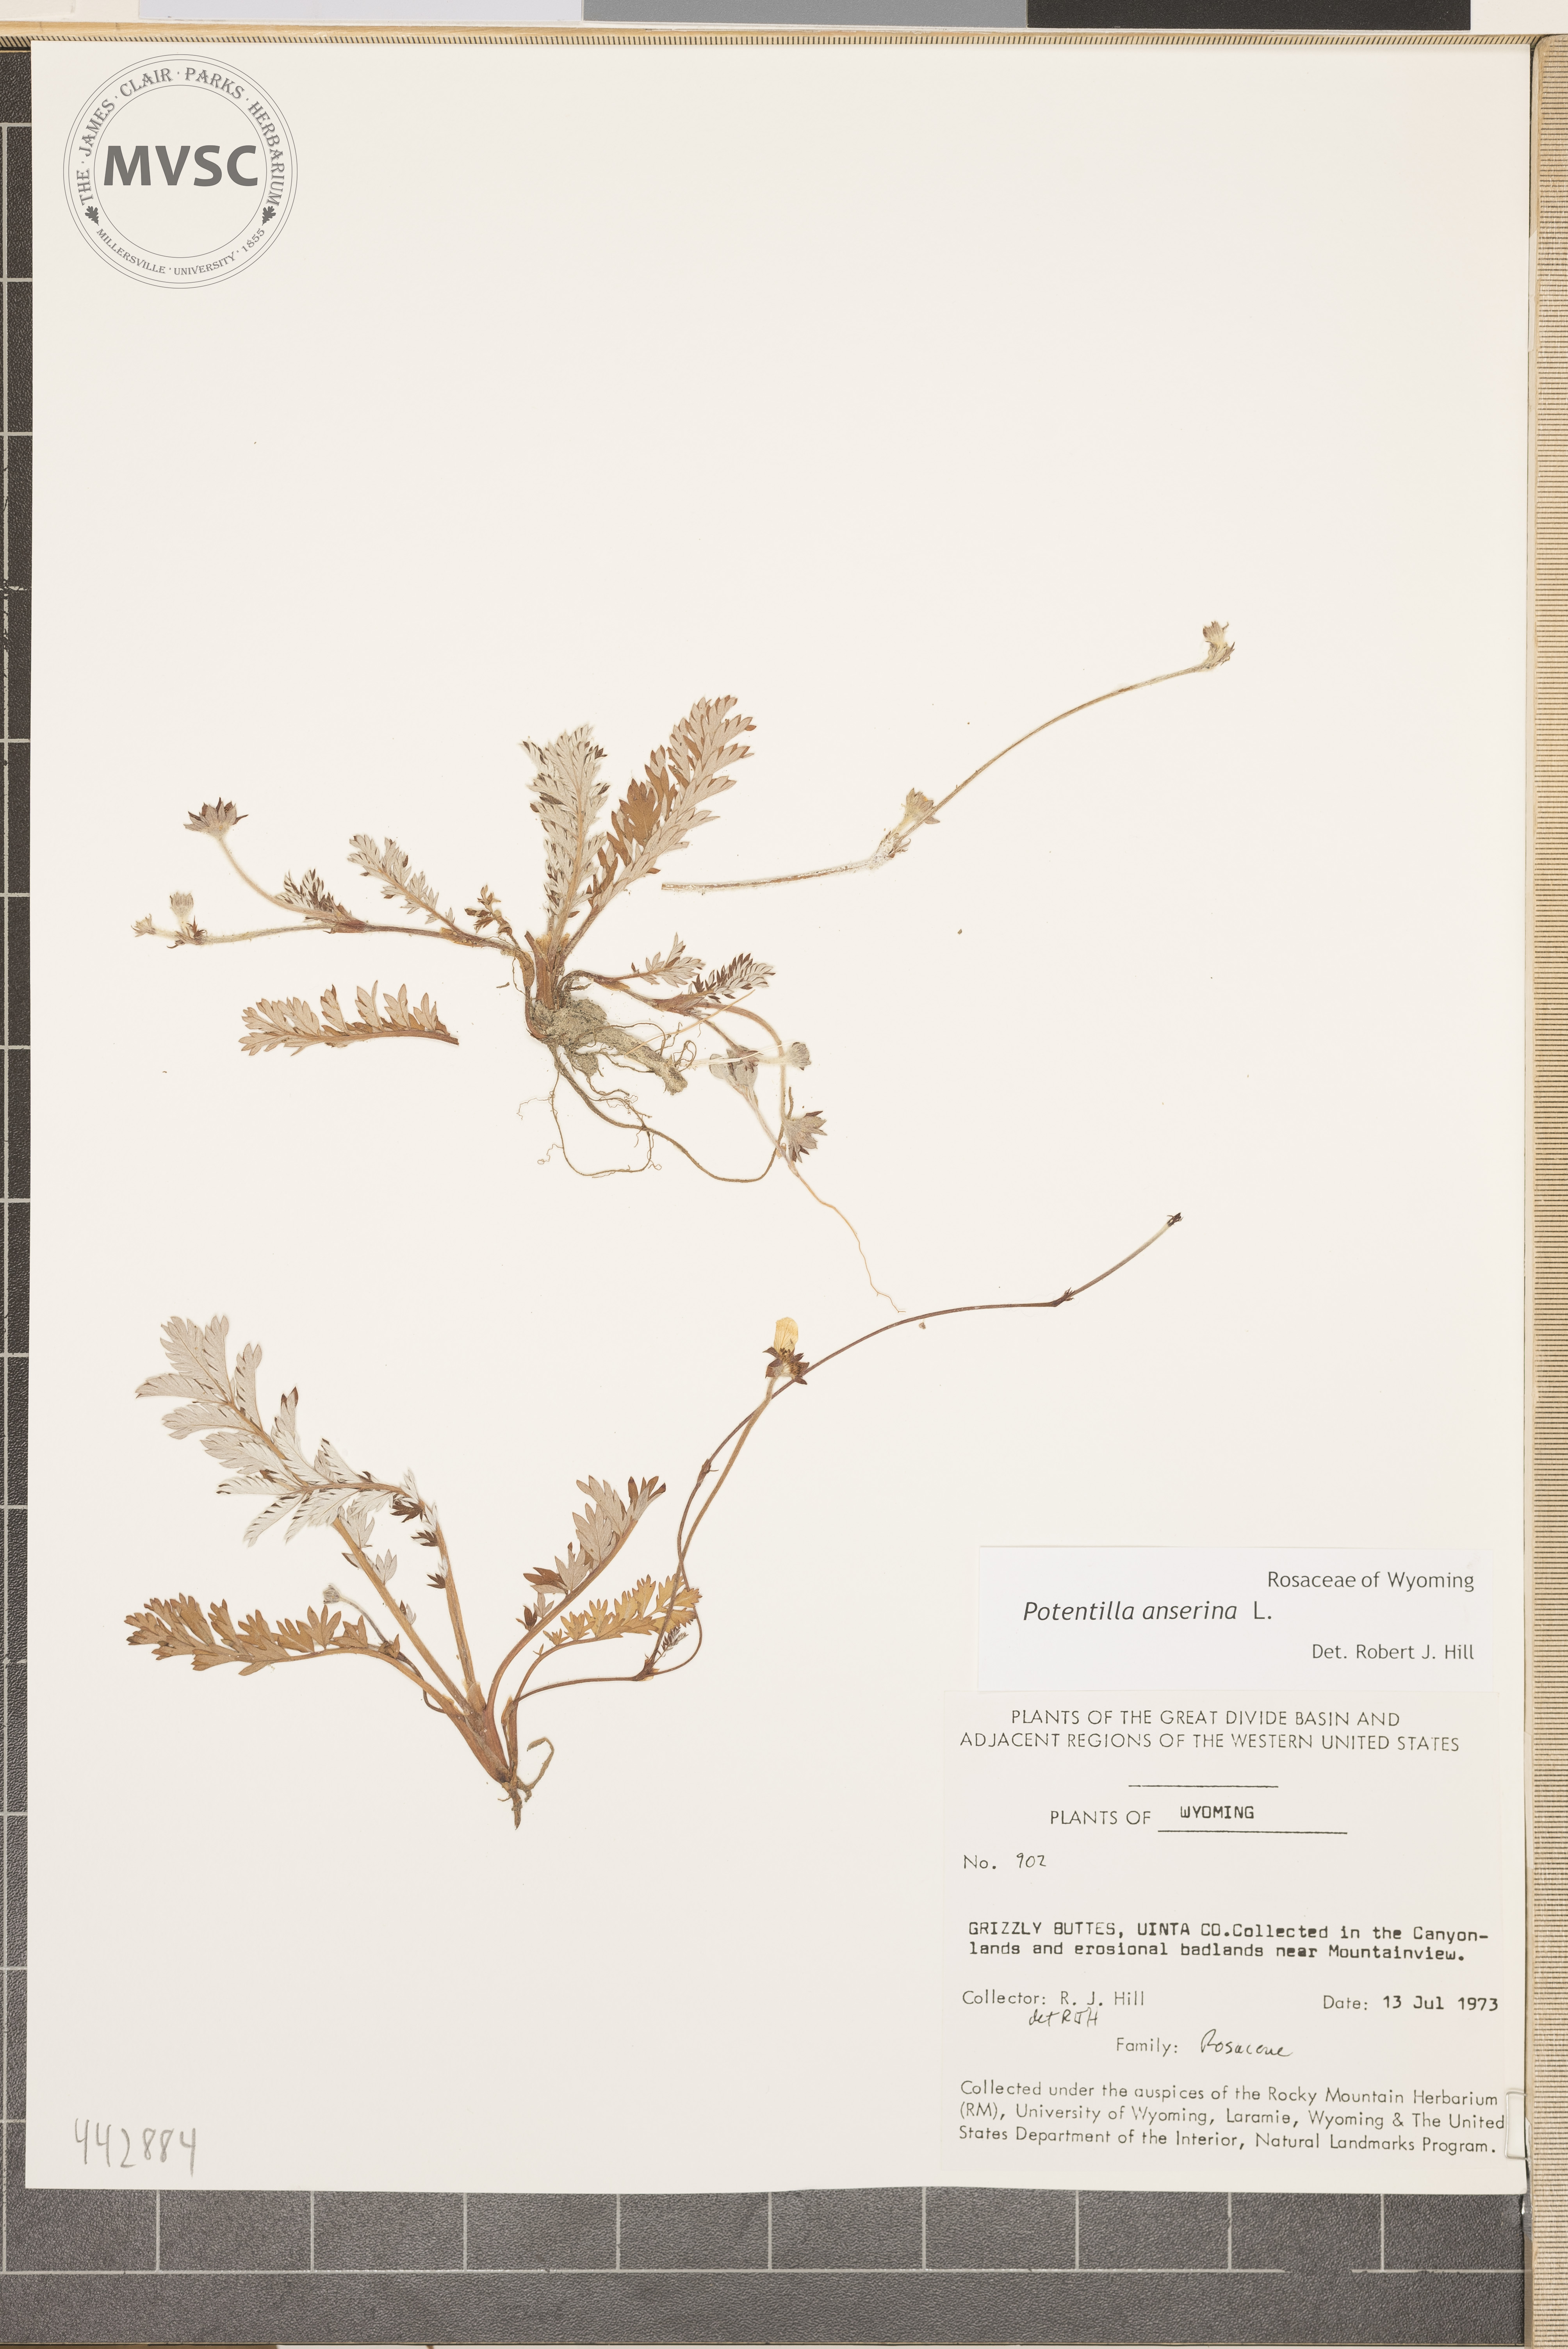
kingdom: Plantae
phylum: Tracheophyta
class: Magnoliopsida
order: Rosales
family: Rosaceae
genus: Argentina
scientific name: Argentina anserina
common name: Common silverweed
